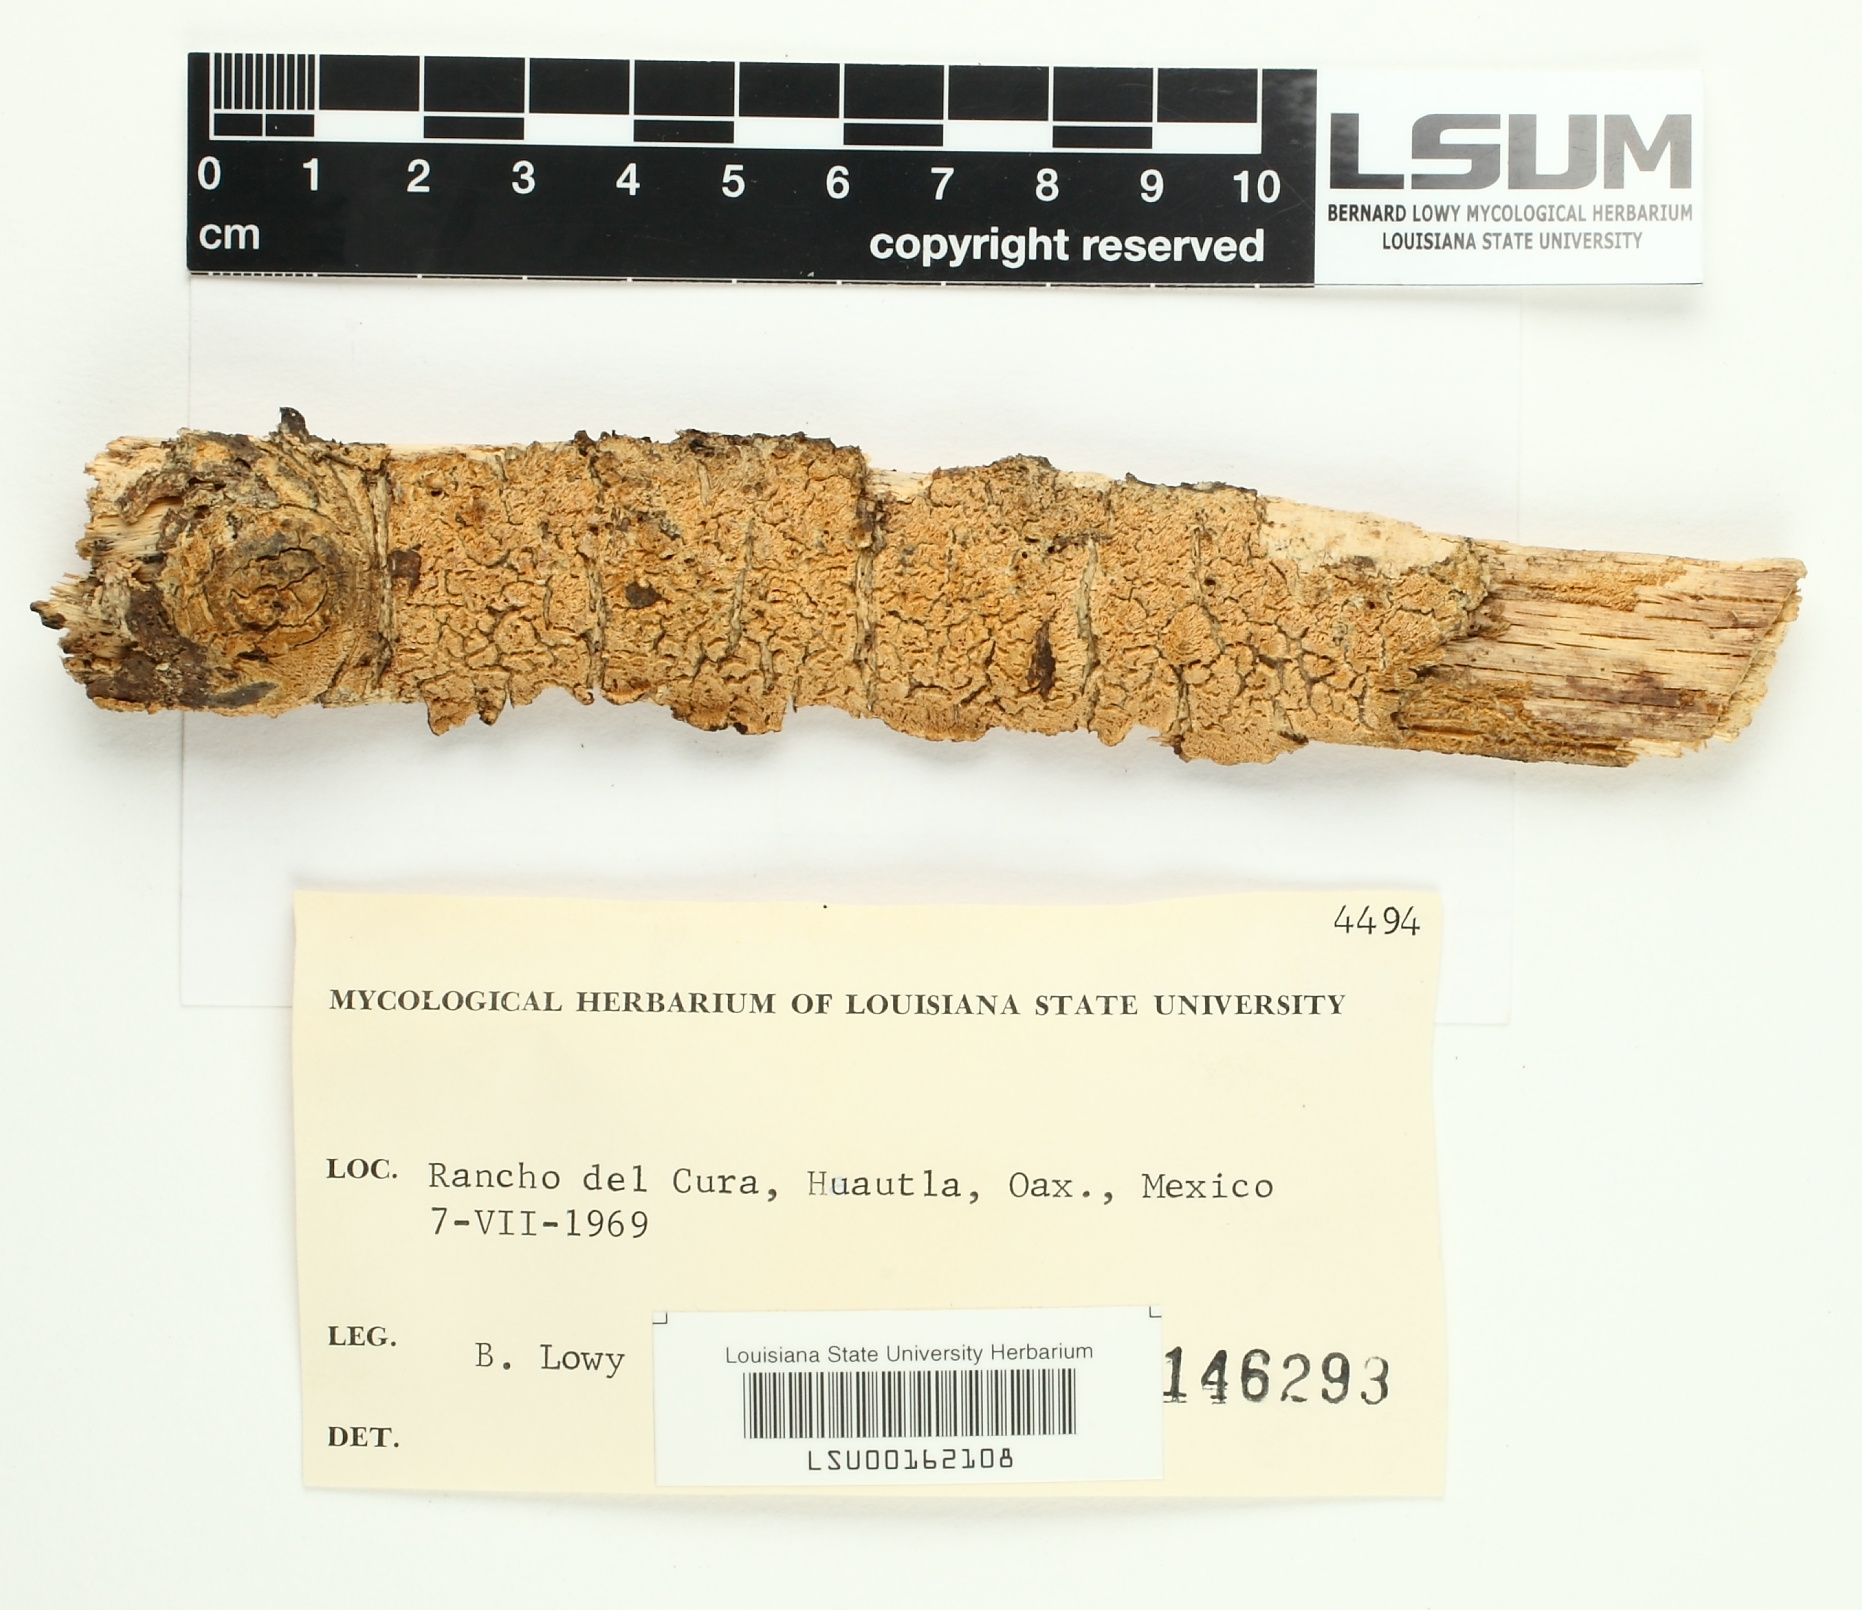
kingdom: Fungi
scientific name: Fungi
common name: Fungi
